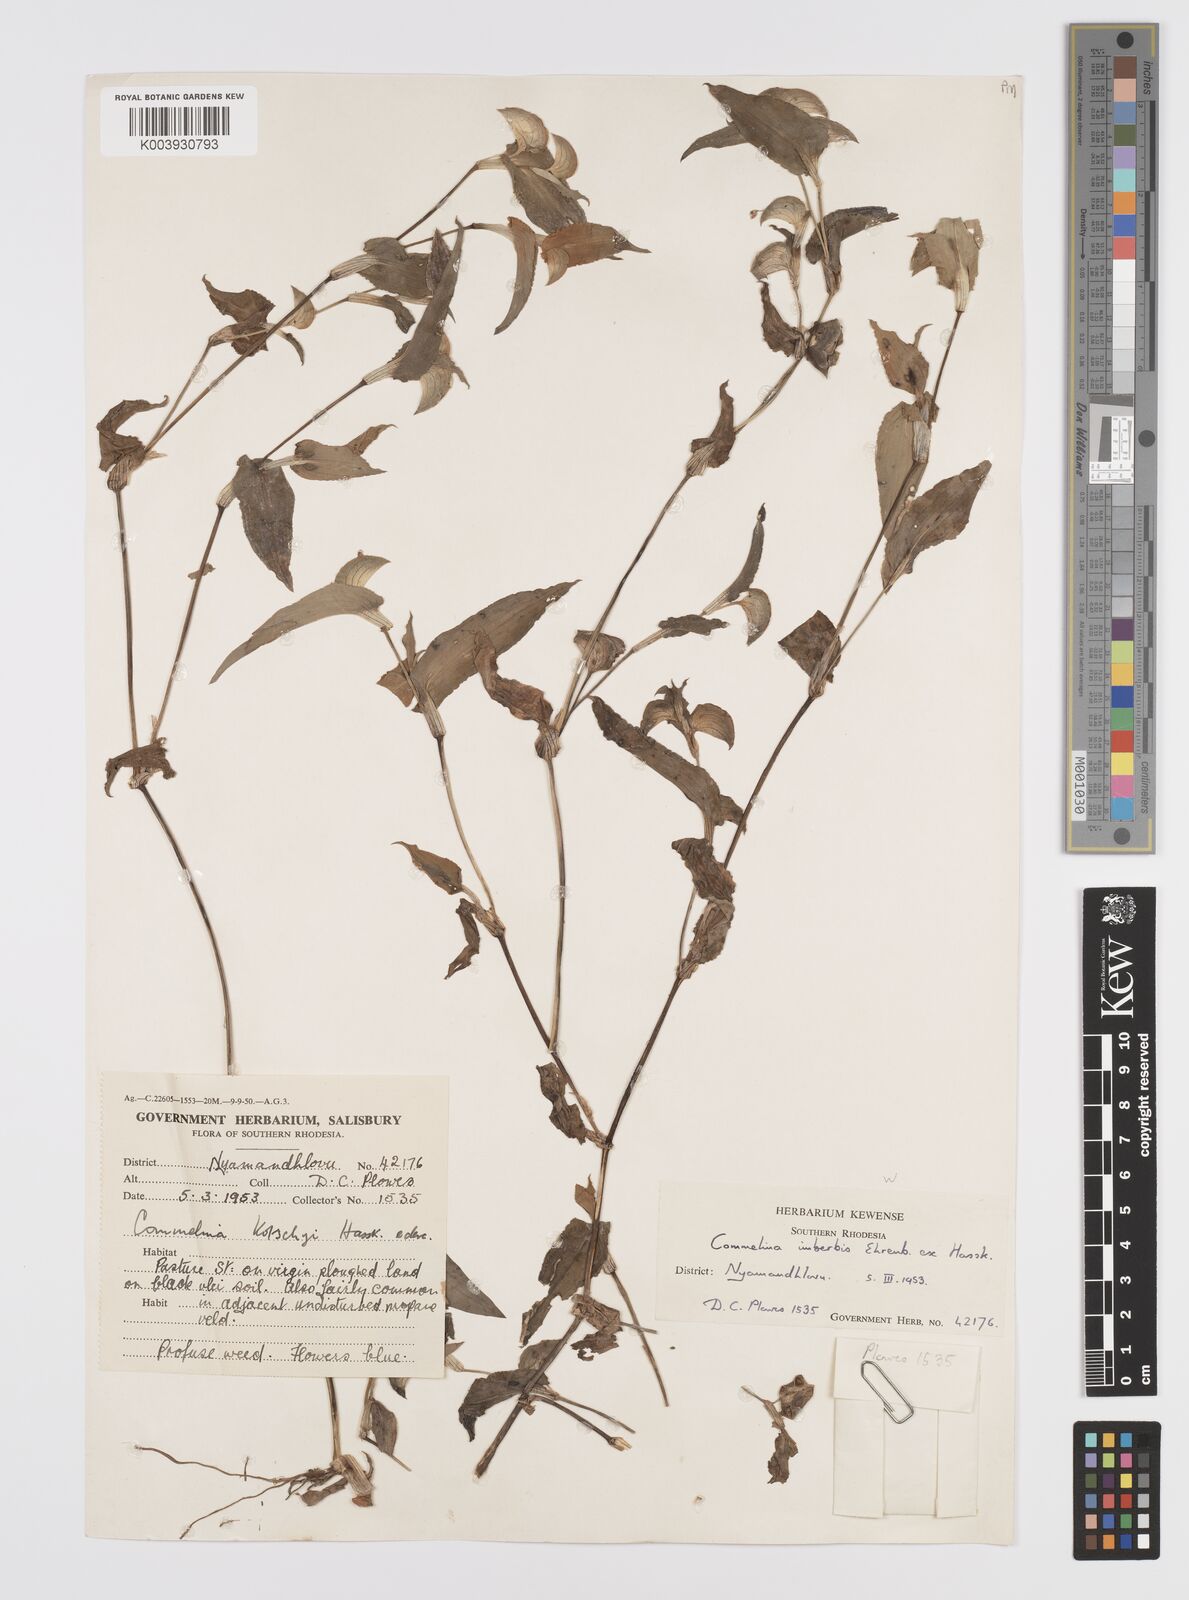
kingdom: Plantae
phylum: Tracheophyta
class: Liliopsida
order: Commelinales
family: Commelinaceae
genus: Commelina
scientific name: Commelina kotschyi
